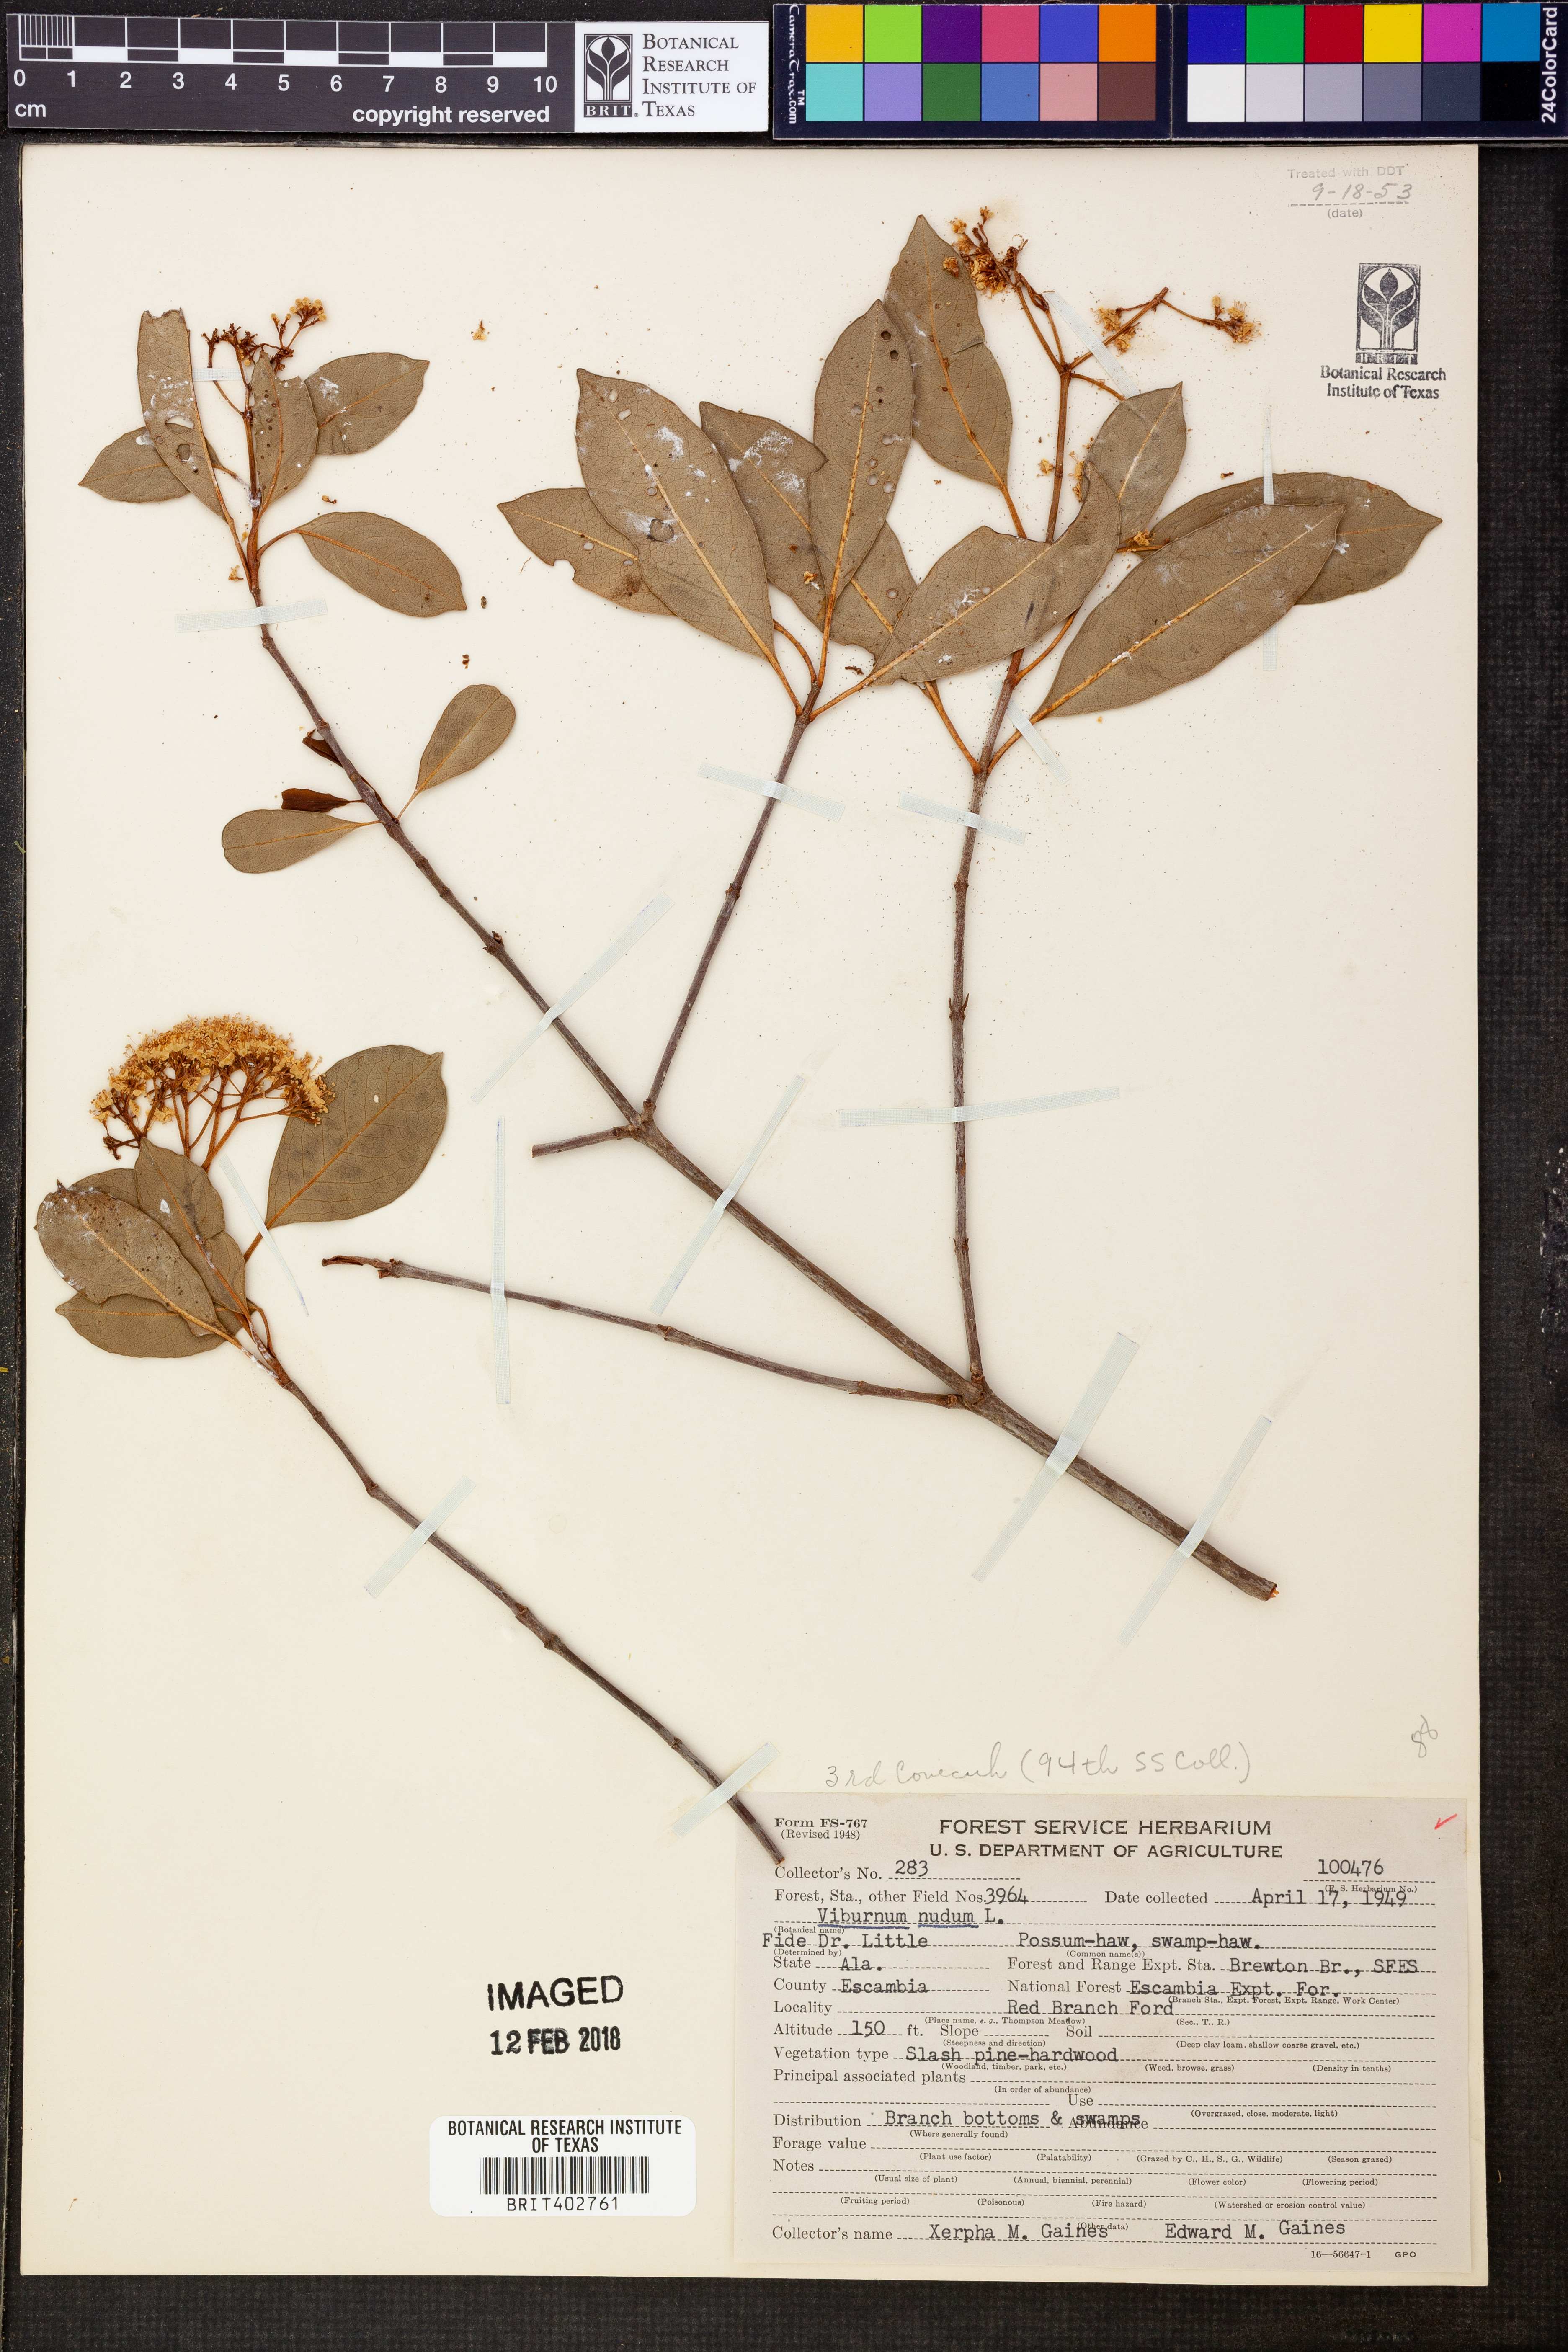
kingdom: Plantae
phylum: Tracheophyta
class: Magnoliopsida
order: Dipsacales
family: Viburnaceae
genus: Viburnum
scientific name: Viburnum nudum
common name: Possum haw
